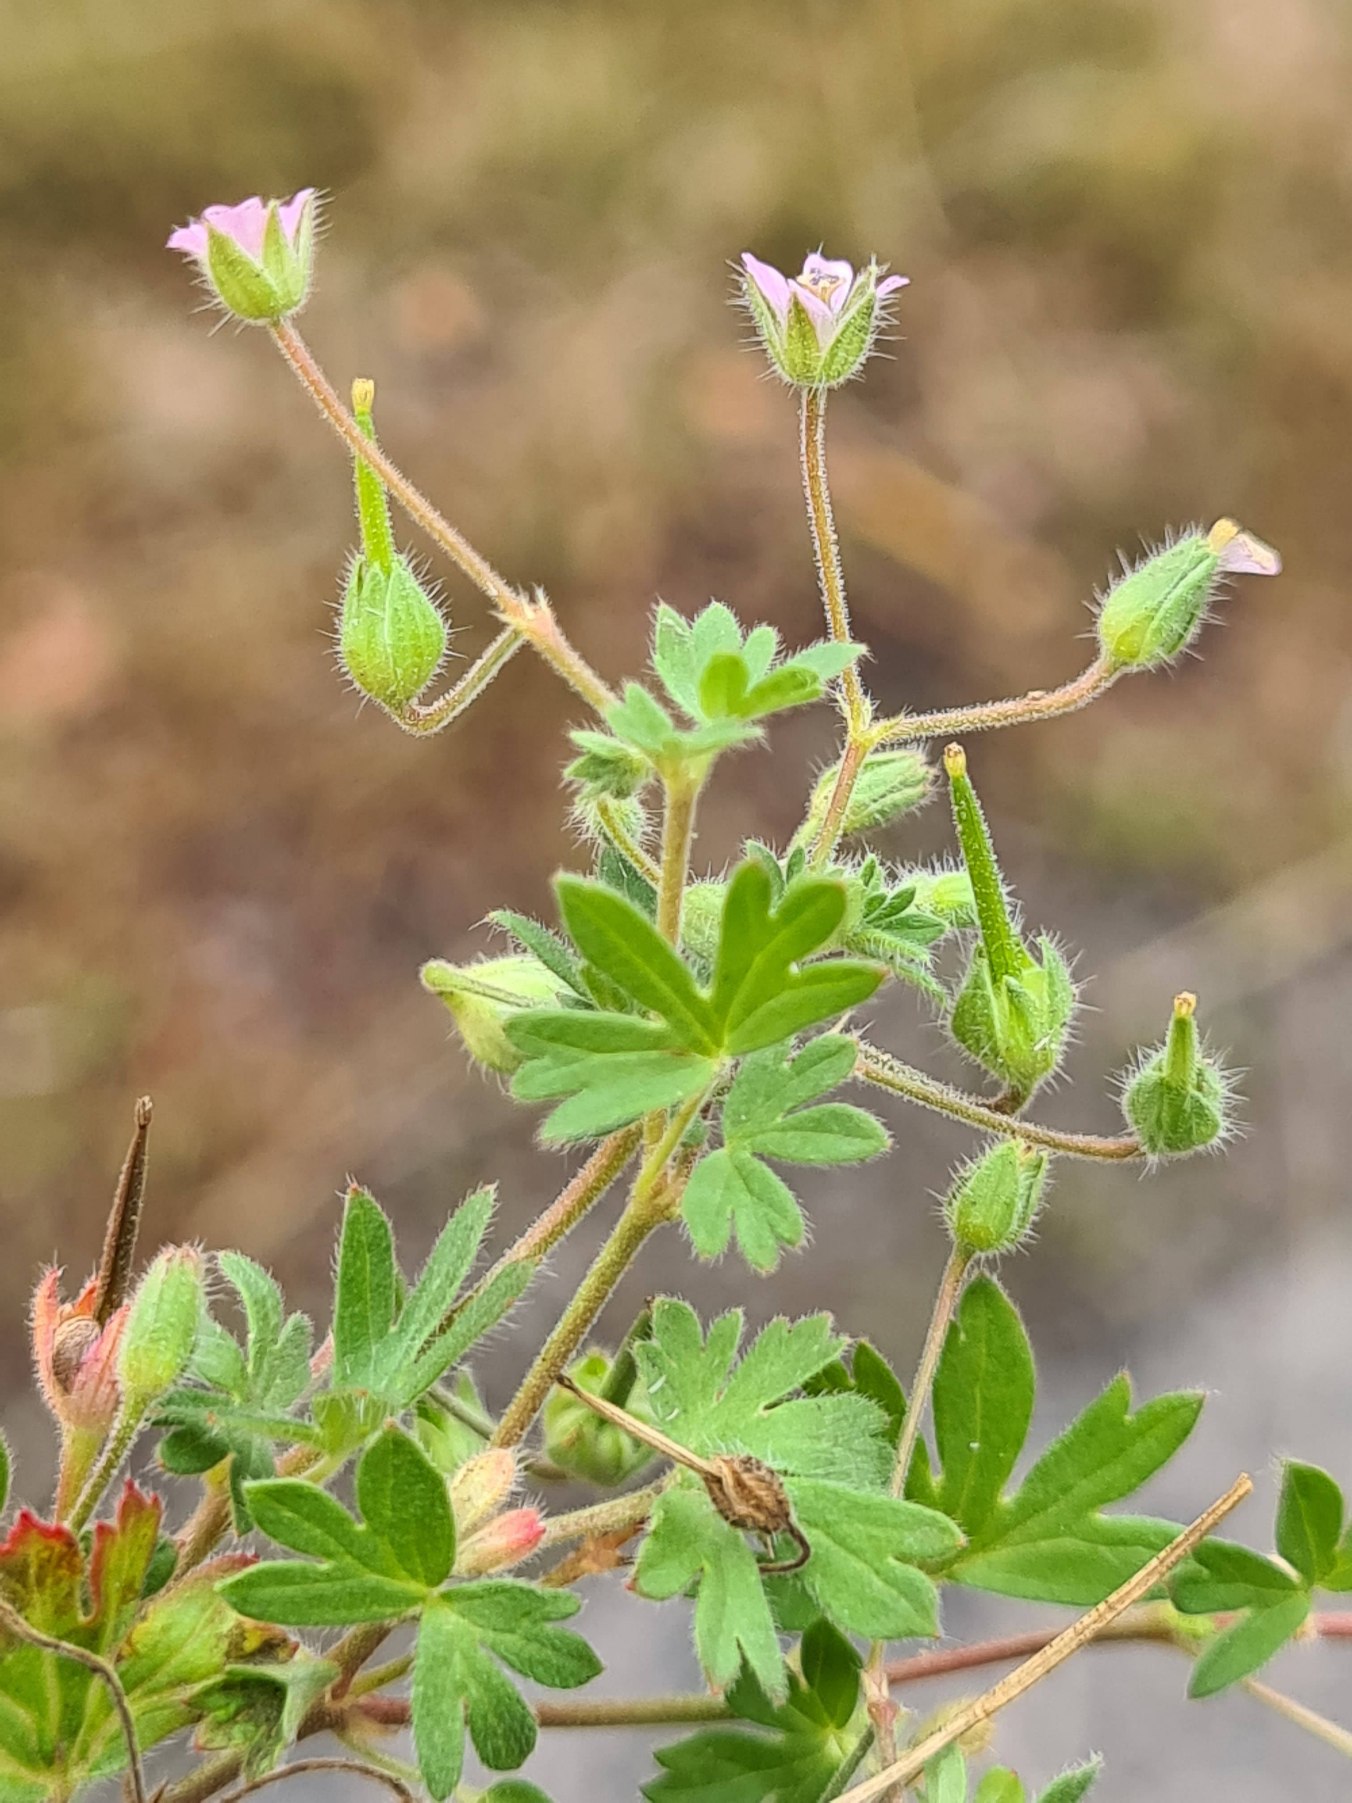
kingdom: Plantae
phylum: Tracheophyta
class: Magnoliopsida
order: Geraniales
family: Geraniaceae
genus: Geranium
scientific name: Geranium pusillum
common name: Liden storkenæb
